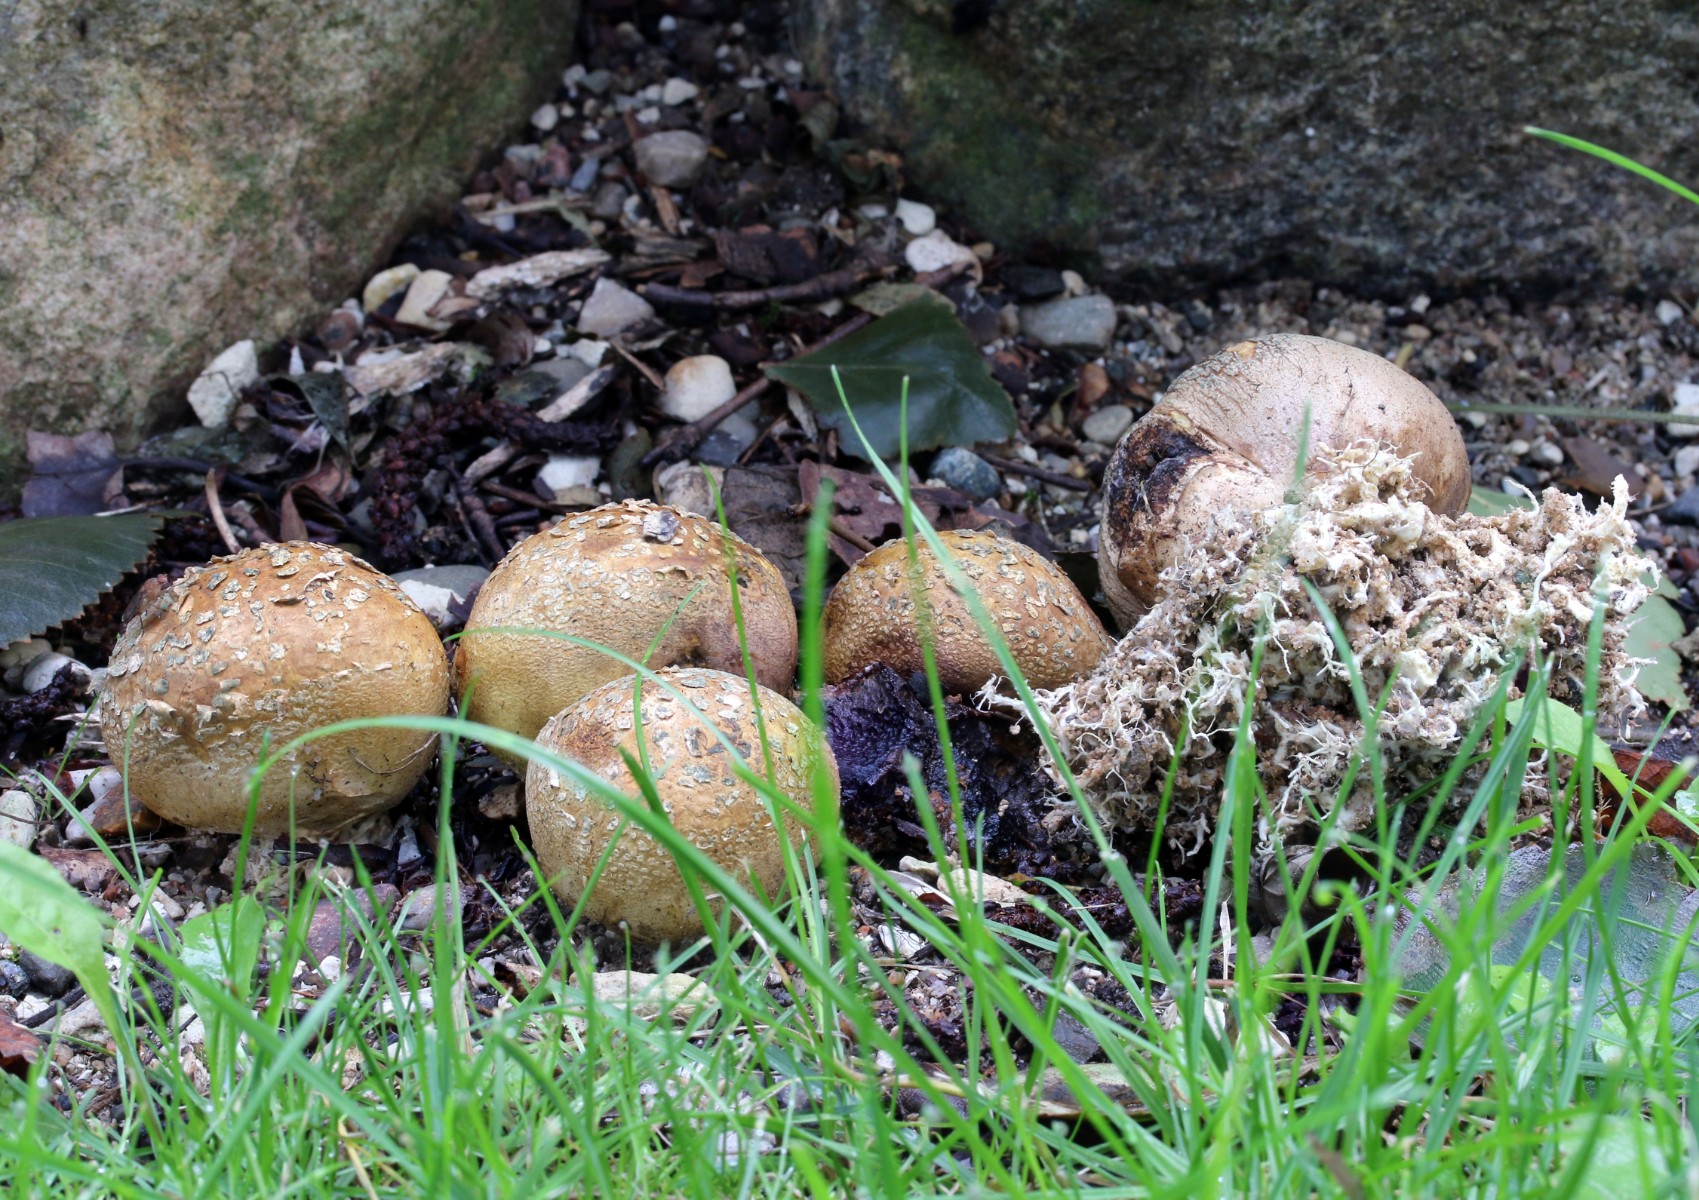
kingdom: Fungi
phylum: Basidiomycota
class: Agaricomycetes
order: Boletales
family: Sclerodermataceae
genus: Scleroderma
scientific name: Scleroderma verrucosum
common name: stilket bruskbold
